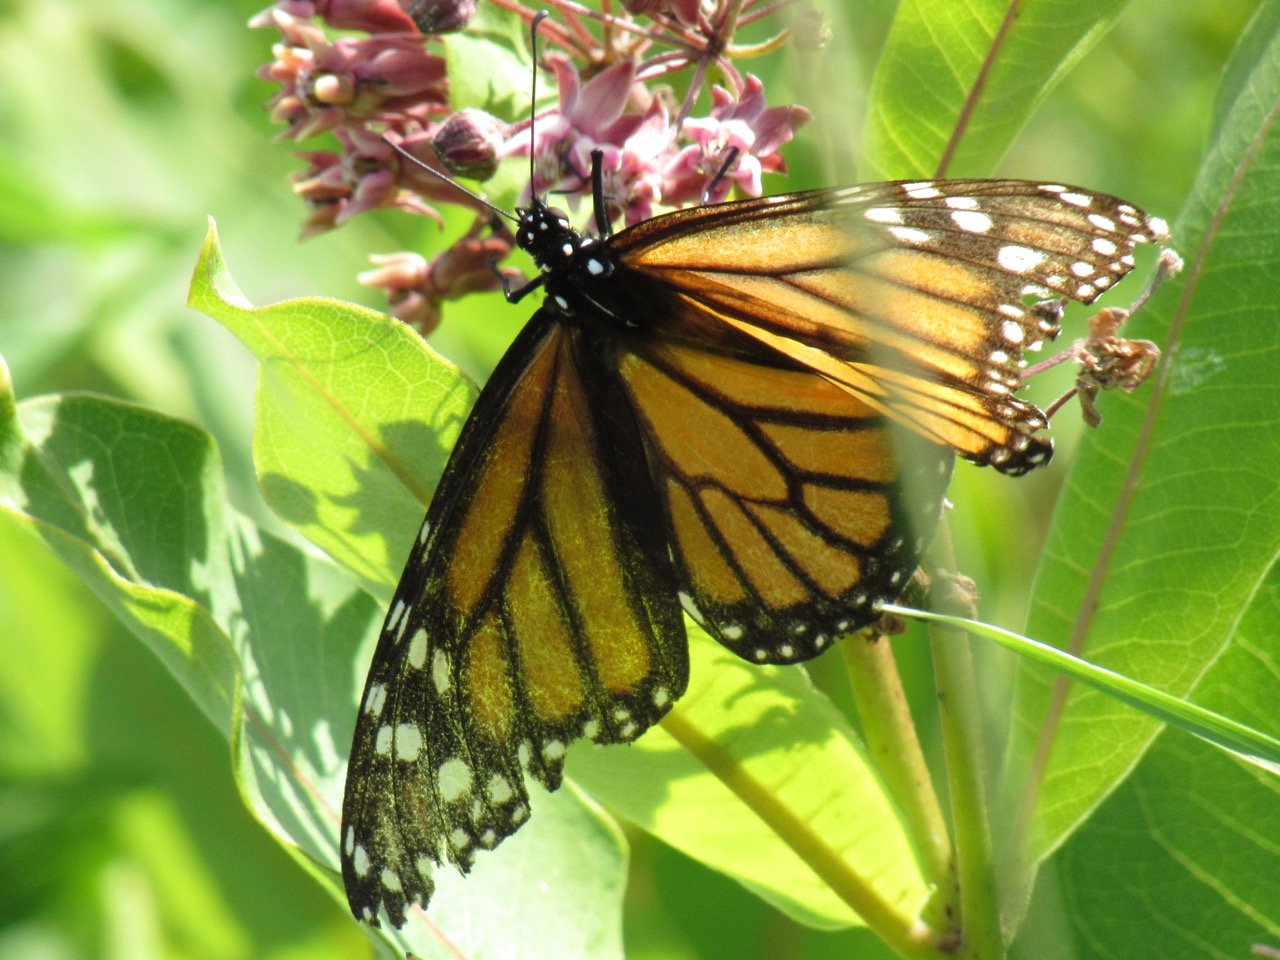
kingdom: Animalia
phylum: Arthropoda
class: Insecta
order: Lepidoptera
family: Nymphalidae
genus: Danaus
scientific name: Danaus plexippus
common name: Monarch
